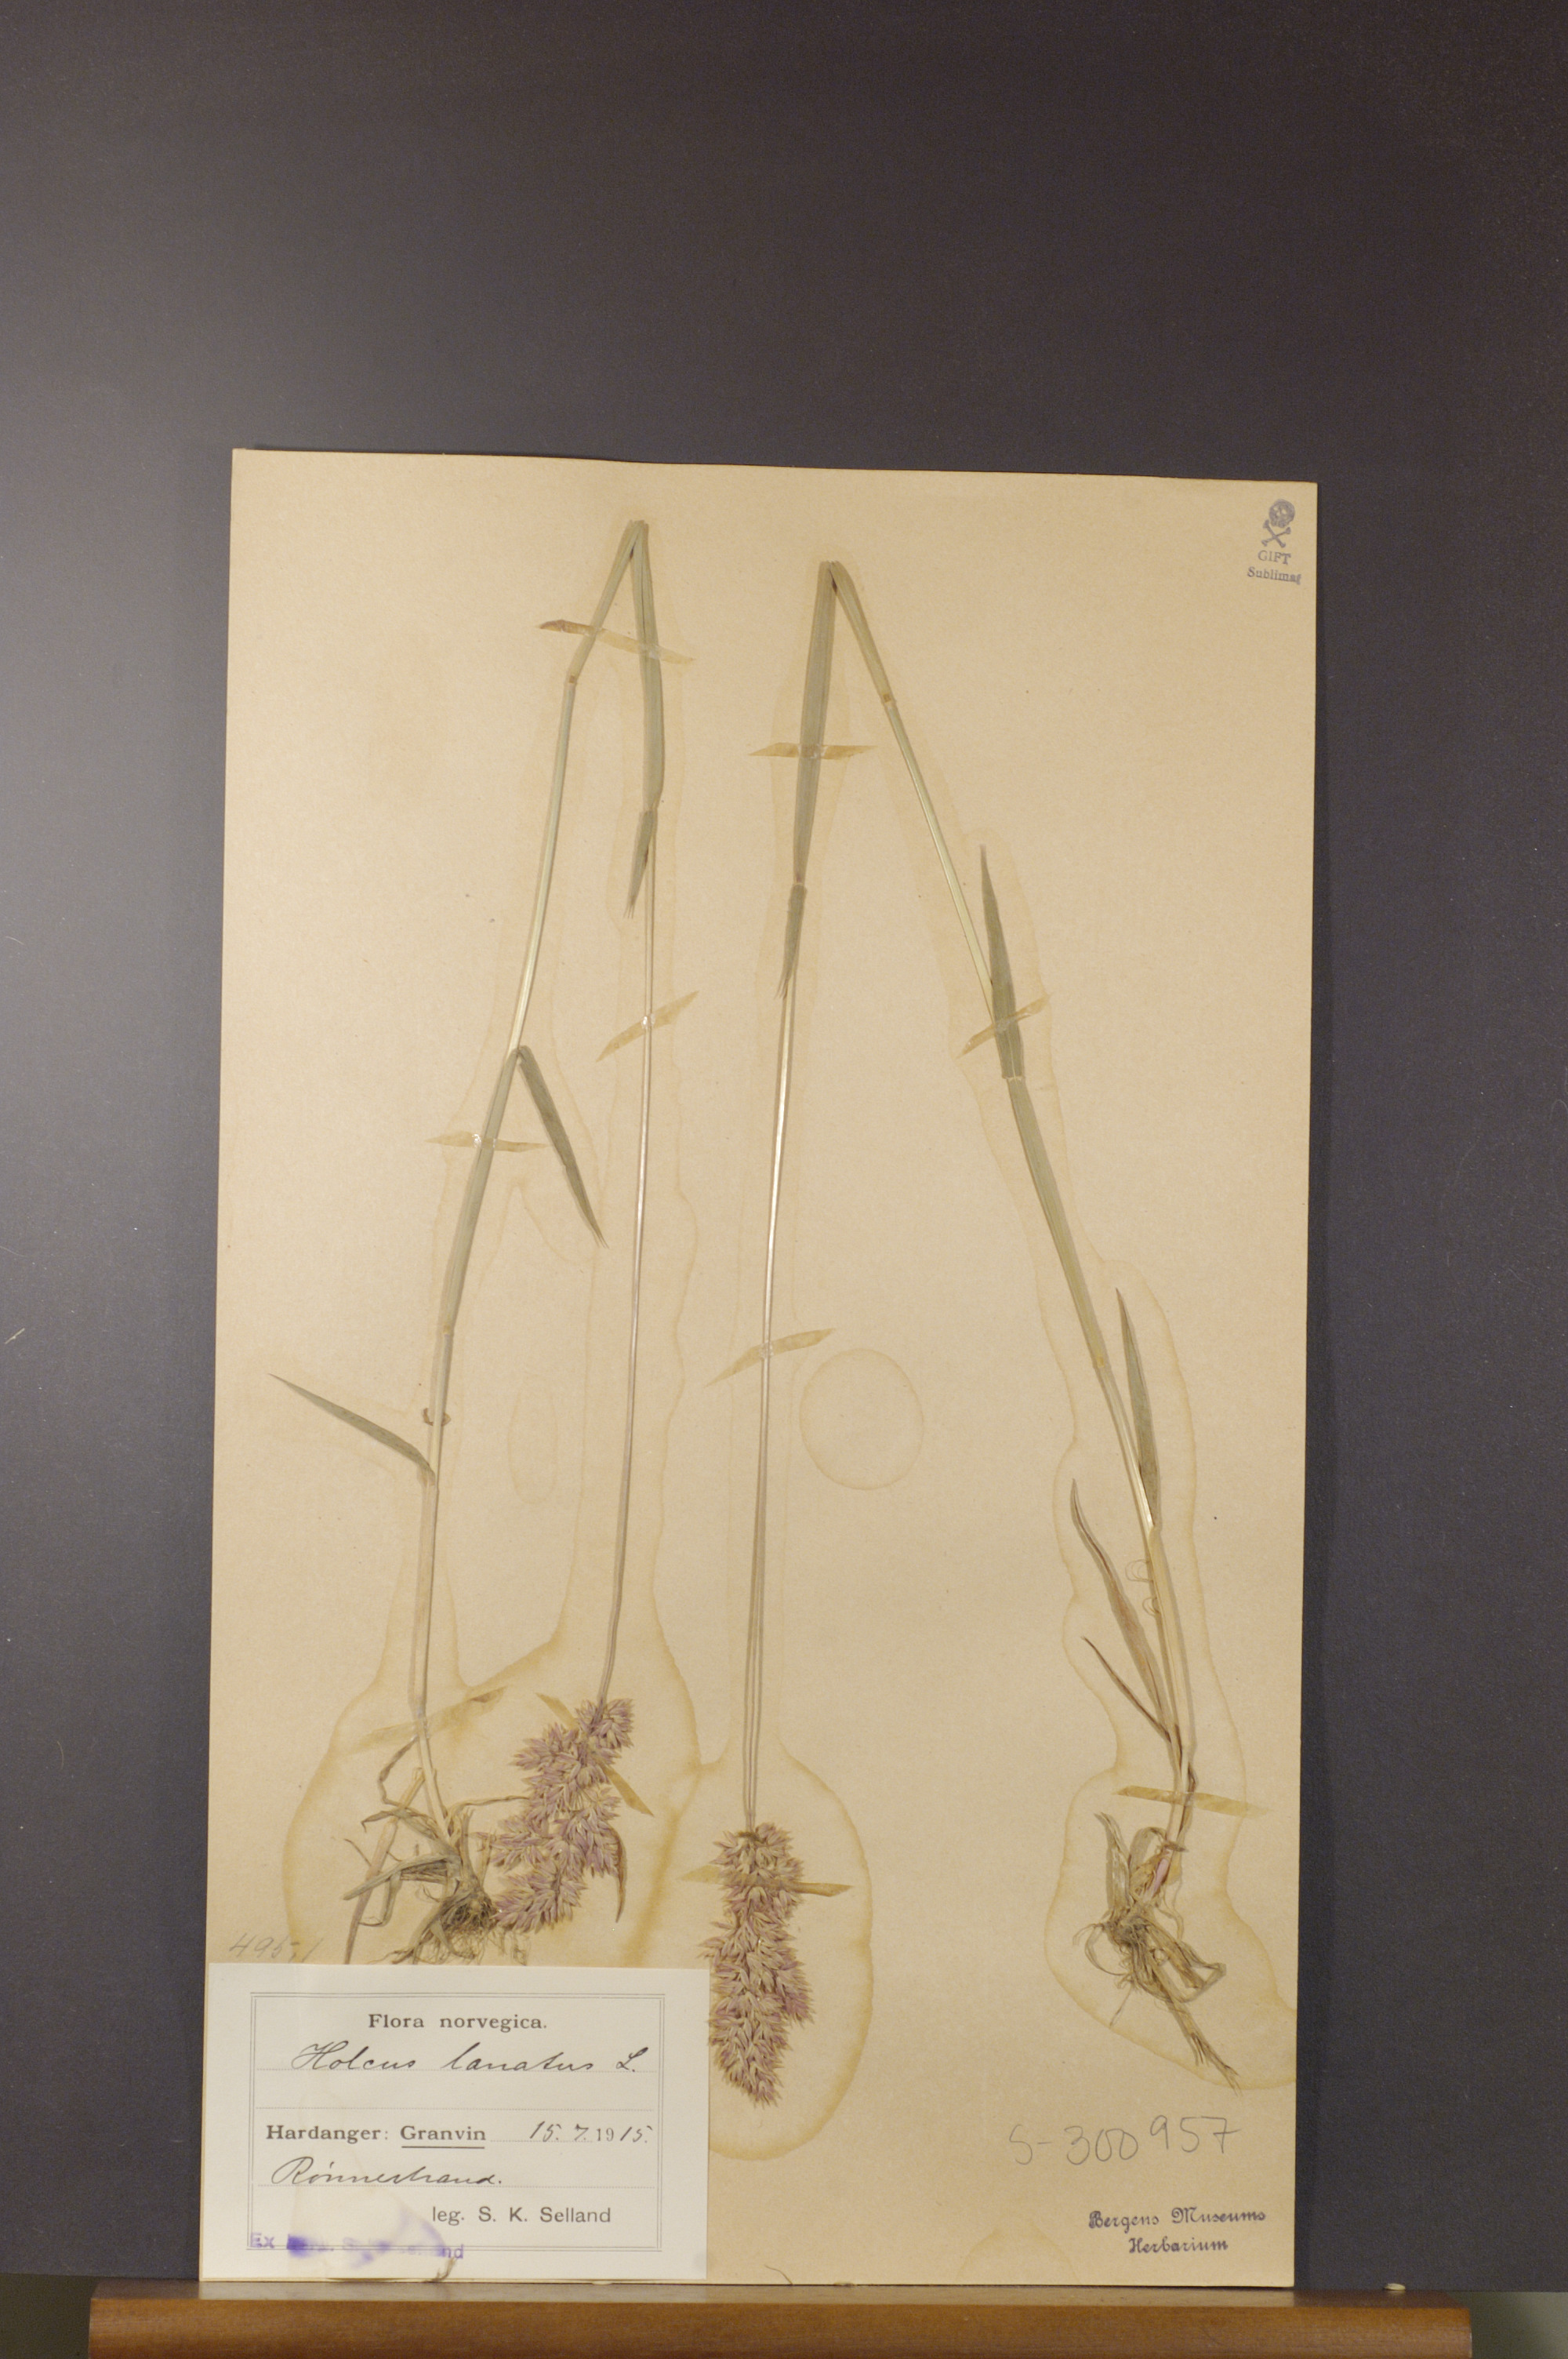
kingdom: Plantae
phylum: Tracheophyta
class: Liliopsida
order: Poales
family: Poaceae
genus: Holcus
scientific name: Holcus lanatus
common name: Yorkshire-fog
